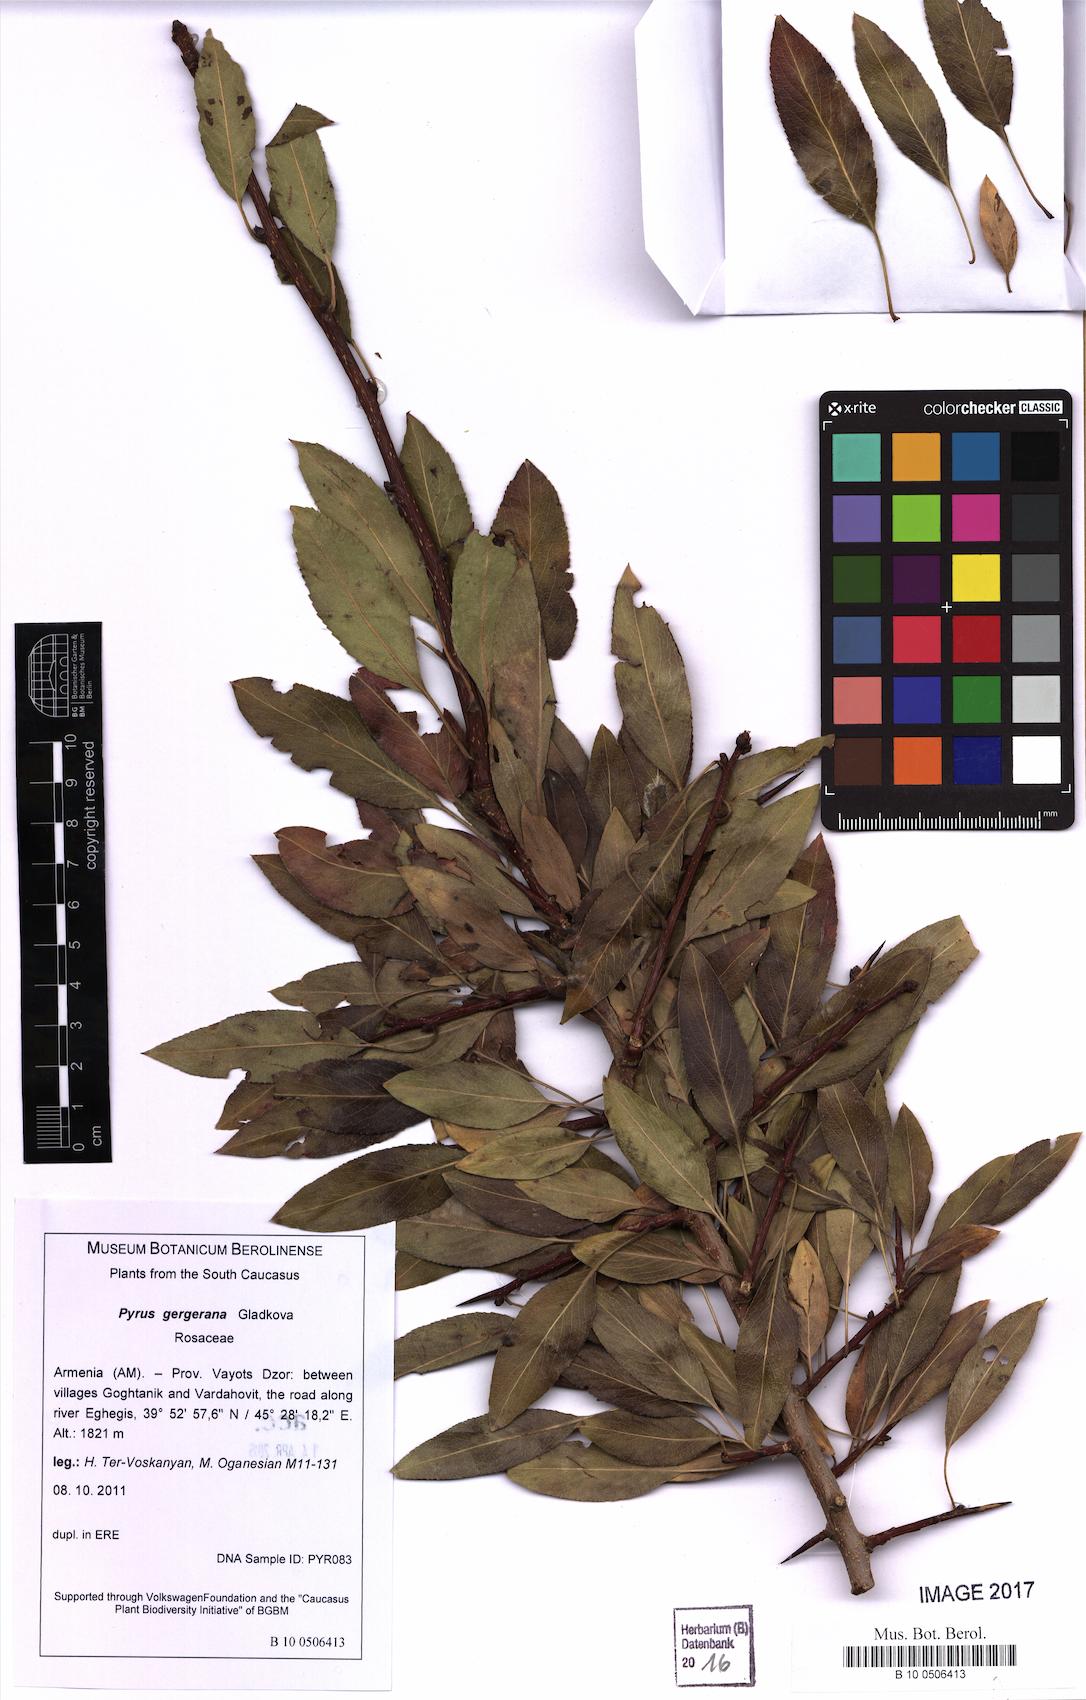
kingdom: Plantae
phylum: Tracheophyta
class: Magnoliopsida
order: Rosales
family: Rosaceae
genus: Pyrus
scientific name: Pyrus gergerana
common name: Gergeranian pear
